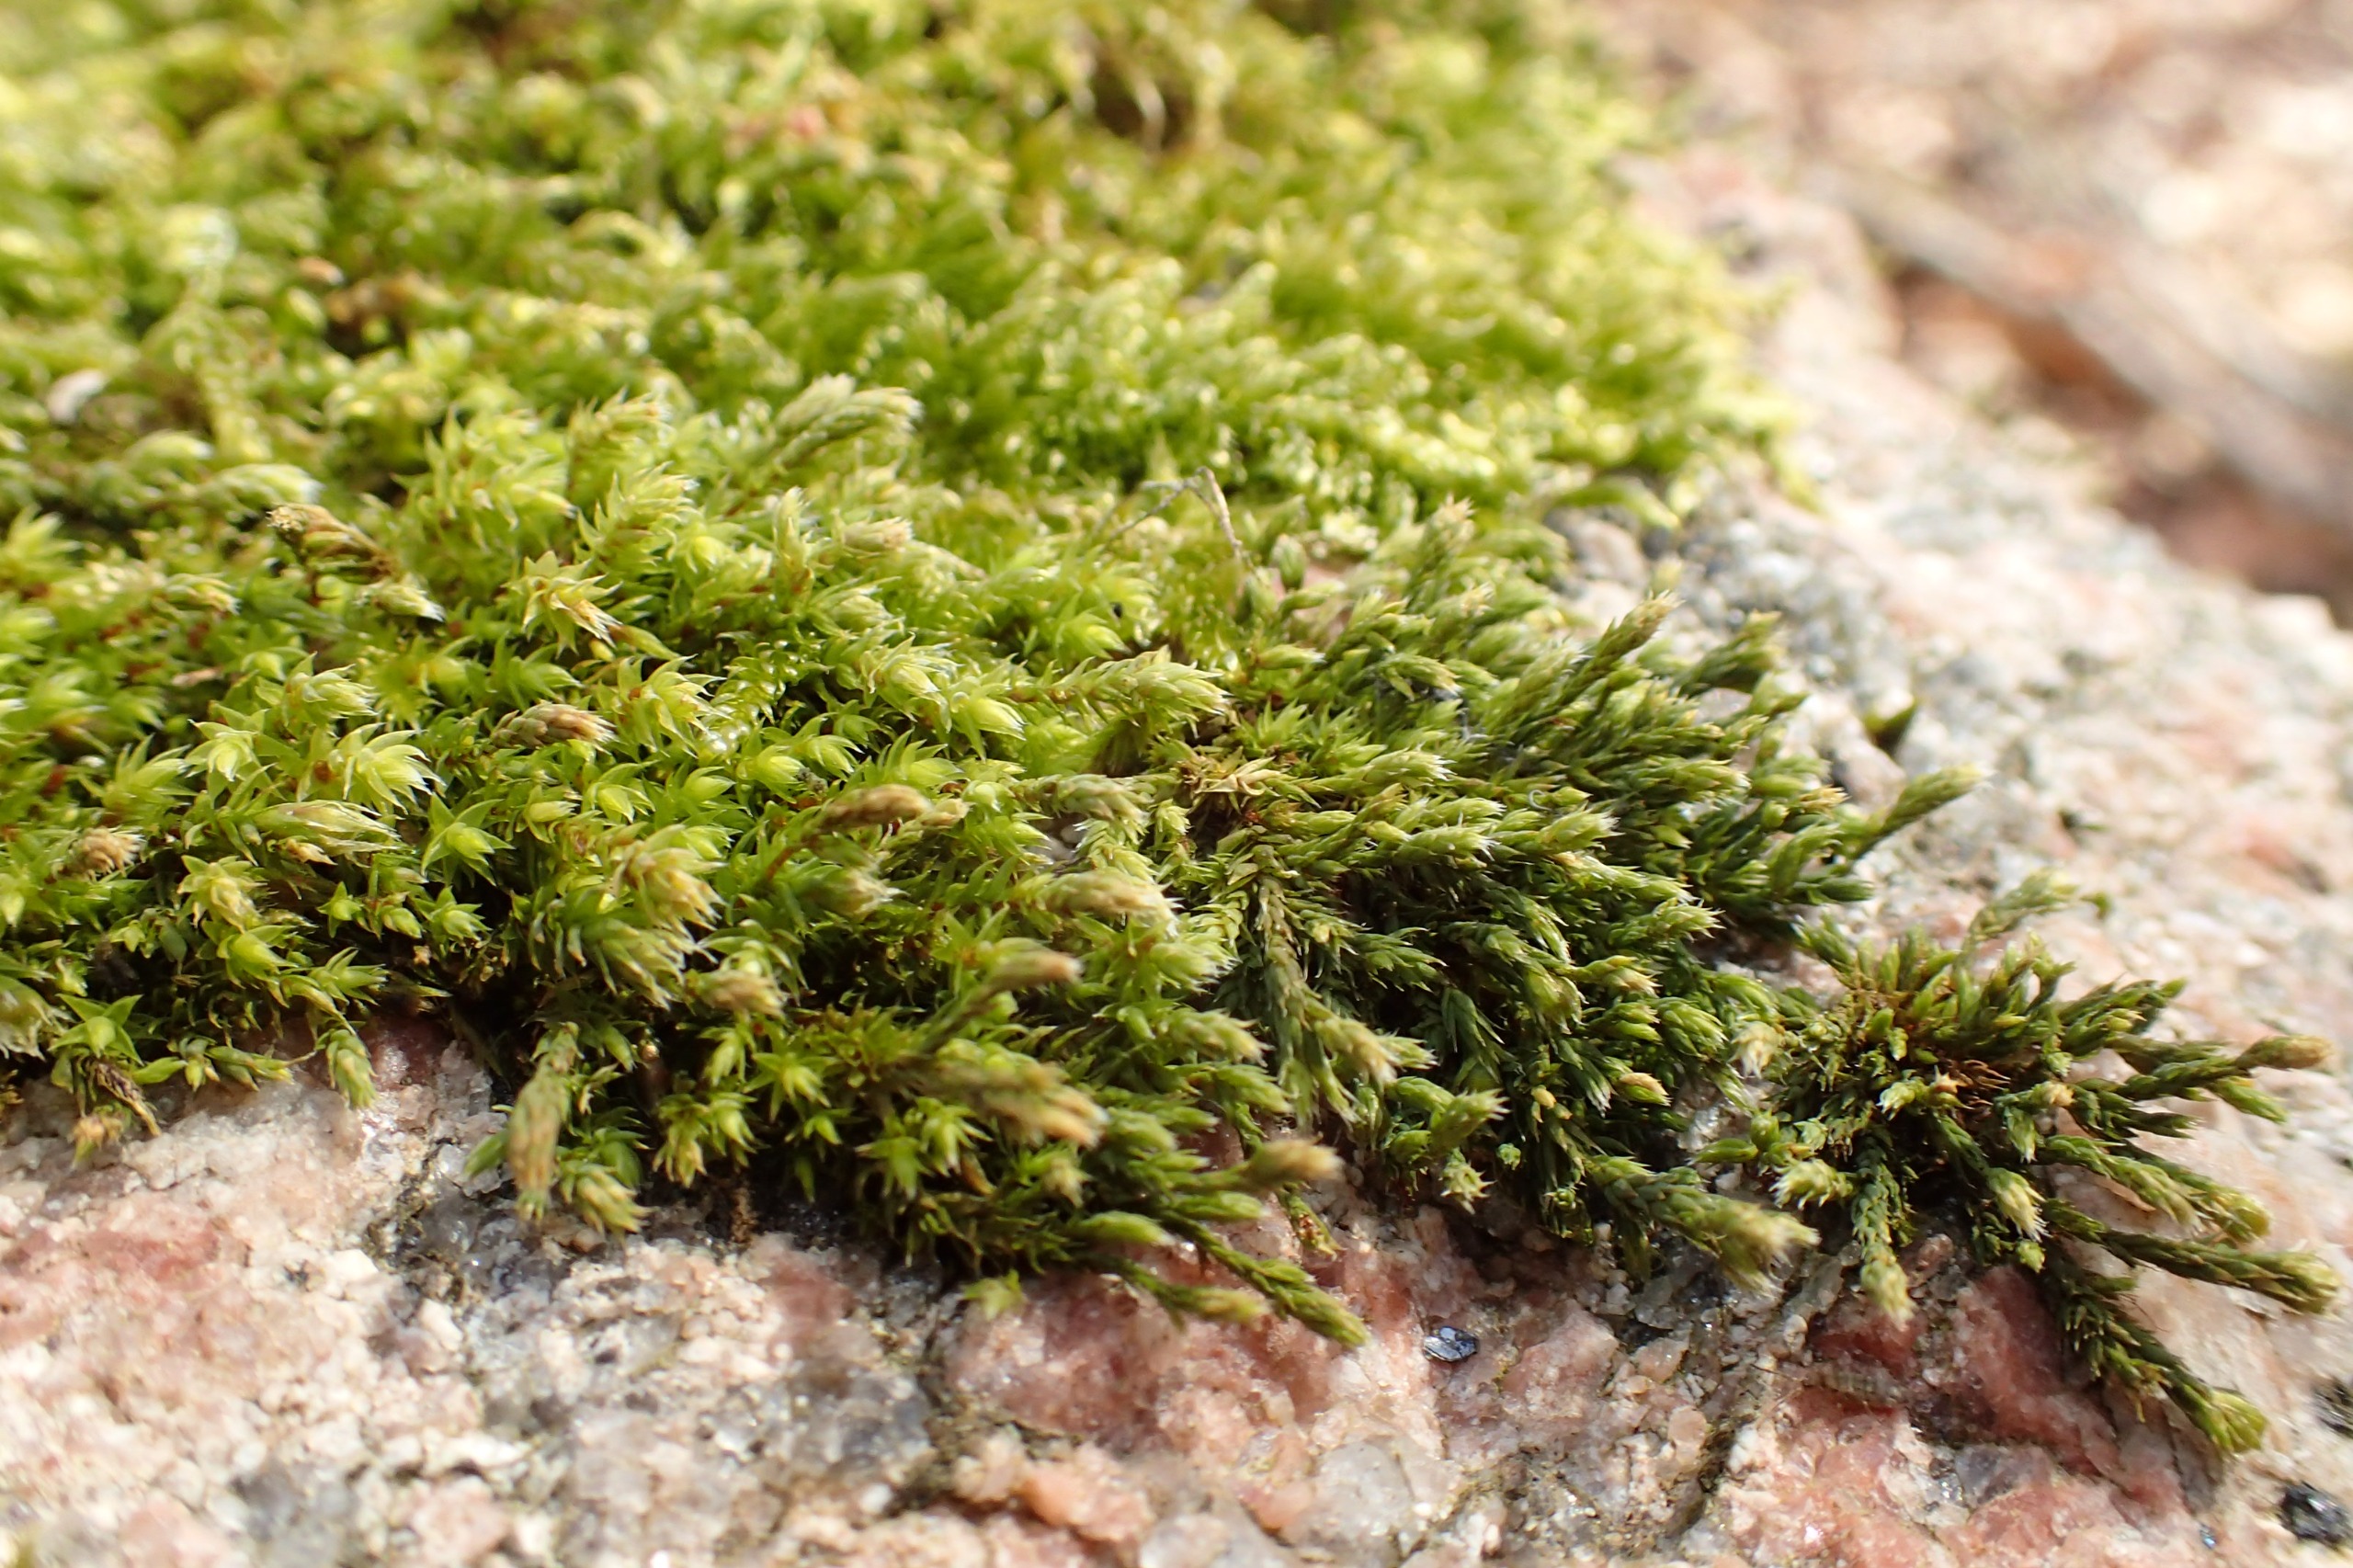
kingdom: Plantae
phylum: Bryophyta
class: Bryopsida
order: Hedwigiales
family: Hedwigiaceae
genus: Hedwigia
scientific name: Hedwigia ciliata
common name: Hvidspidset hedwigia
